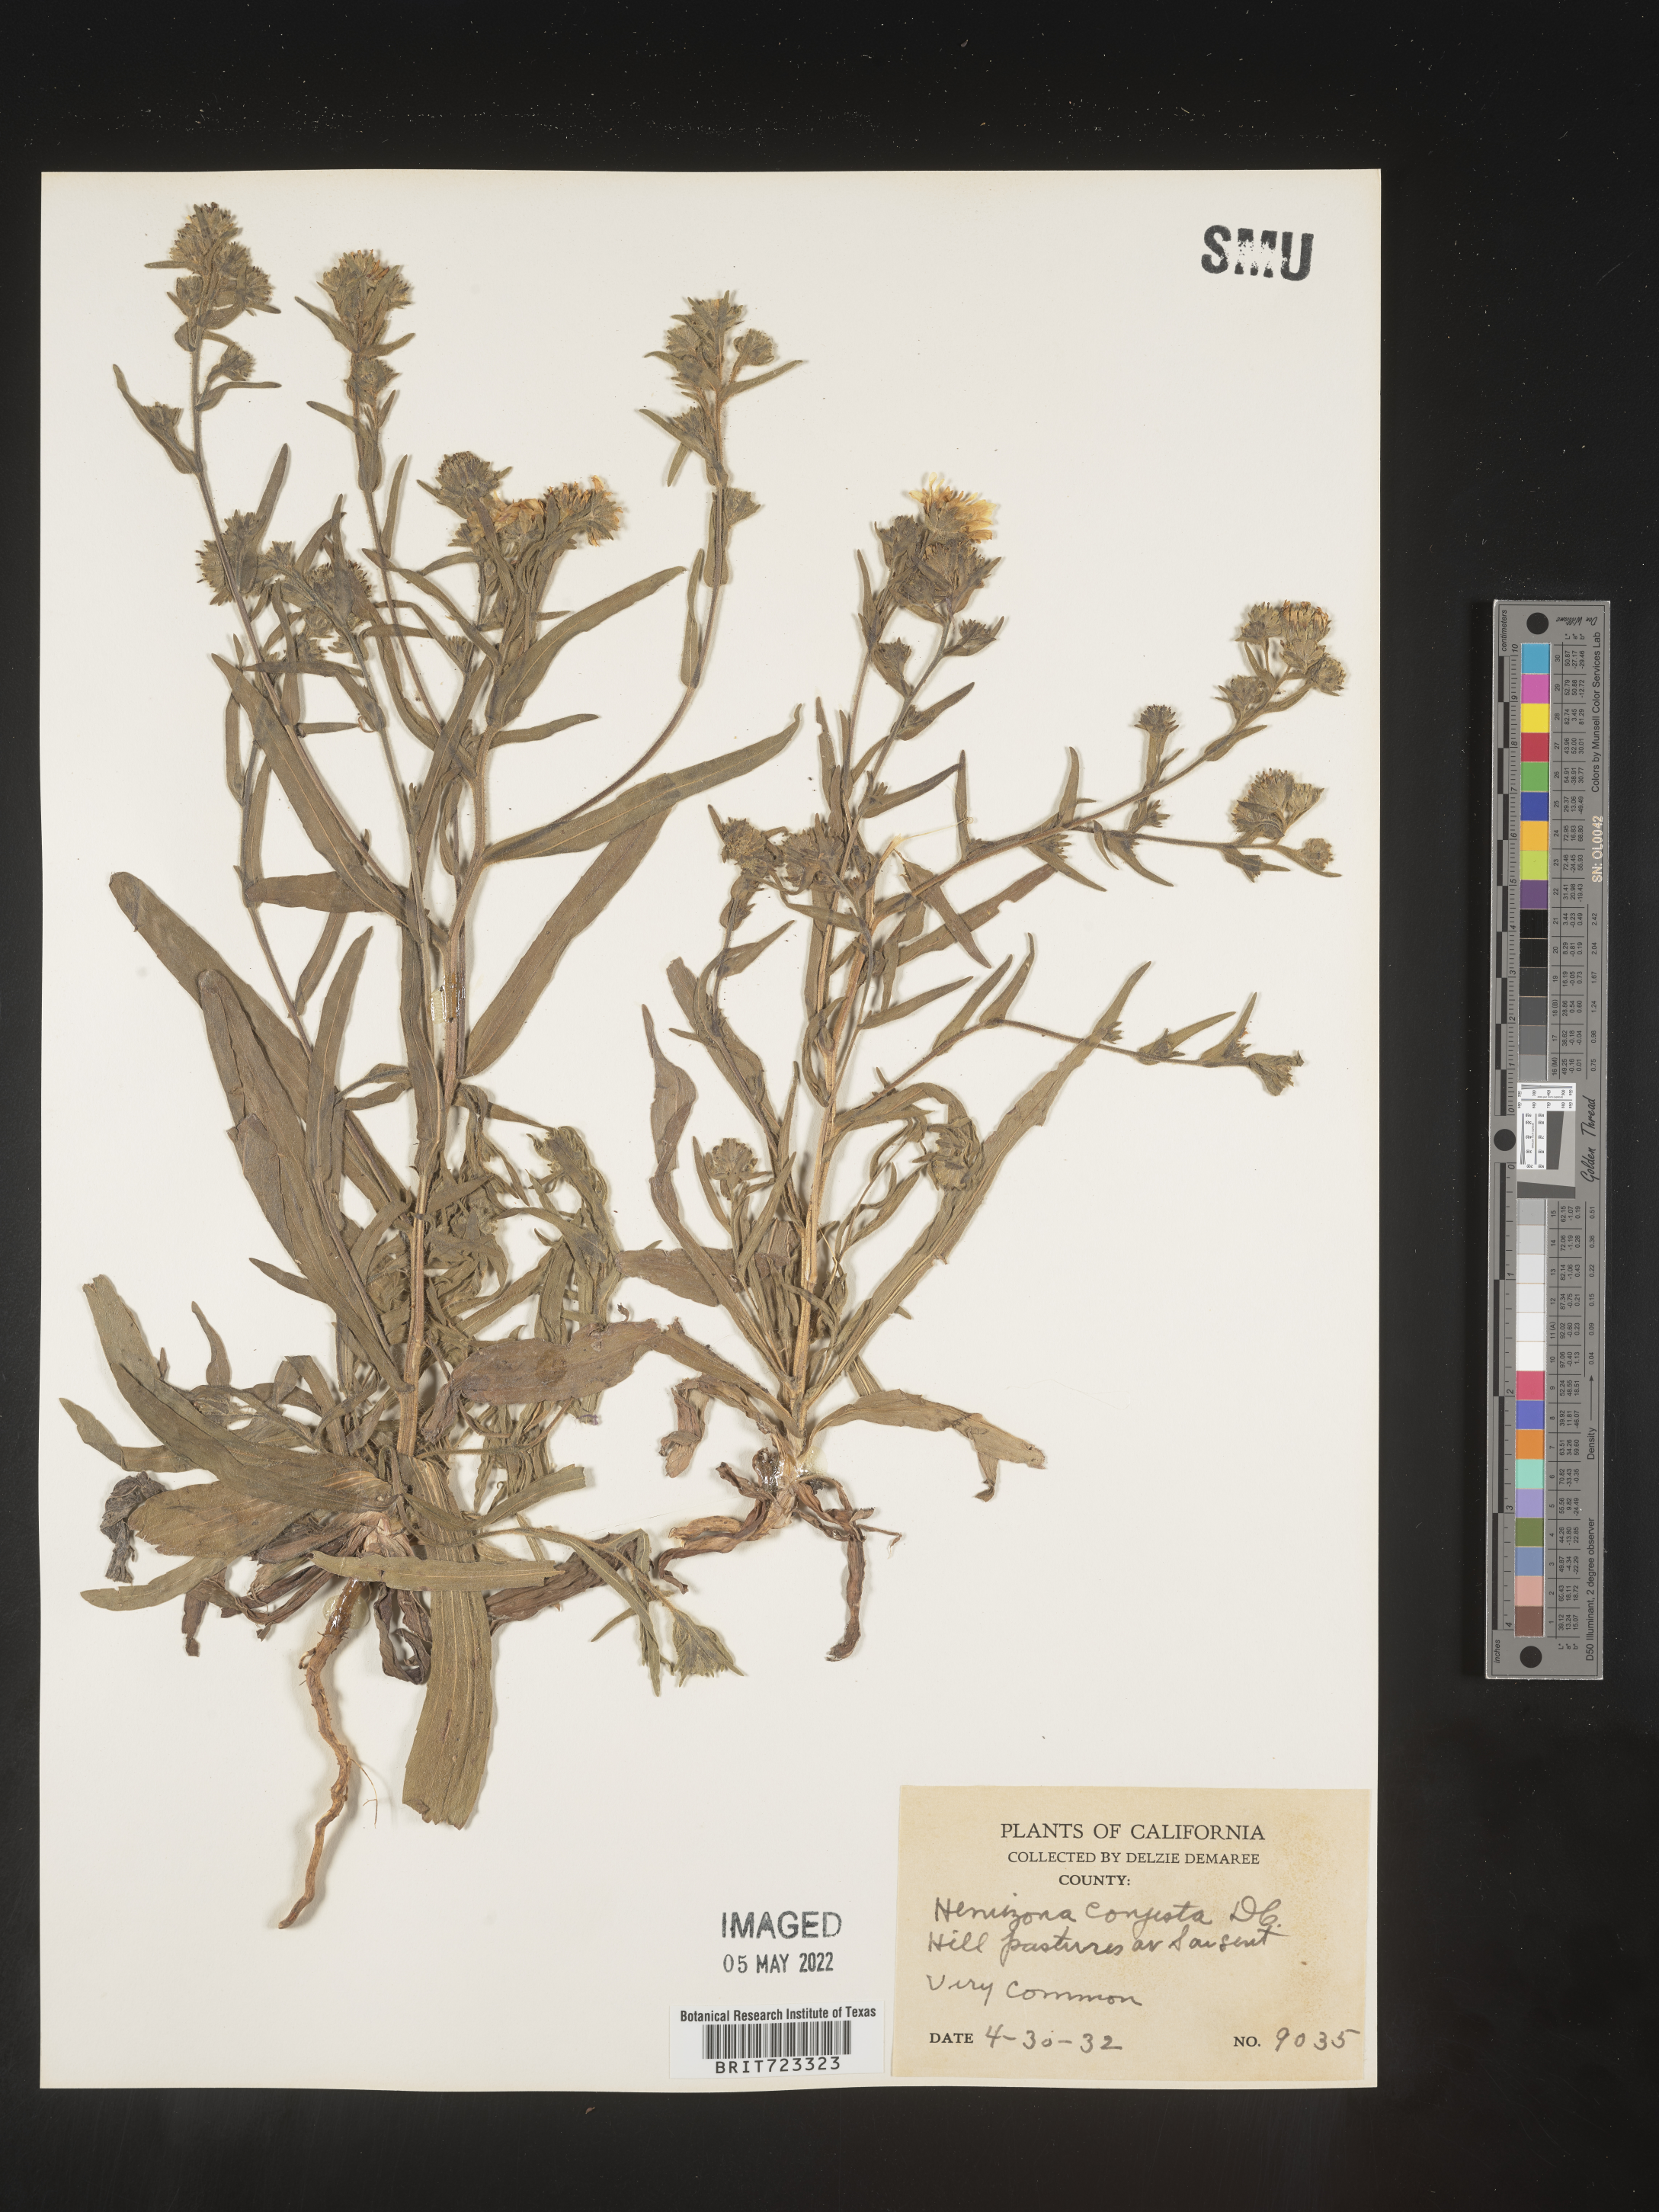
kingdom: Plantae
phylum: Tracheophyta
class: Magnoliopsida
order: Asterales
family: Asteraceae
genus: Hemizonia
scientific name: Hemizonia
